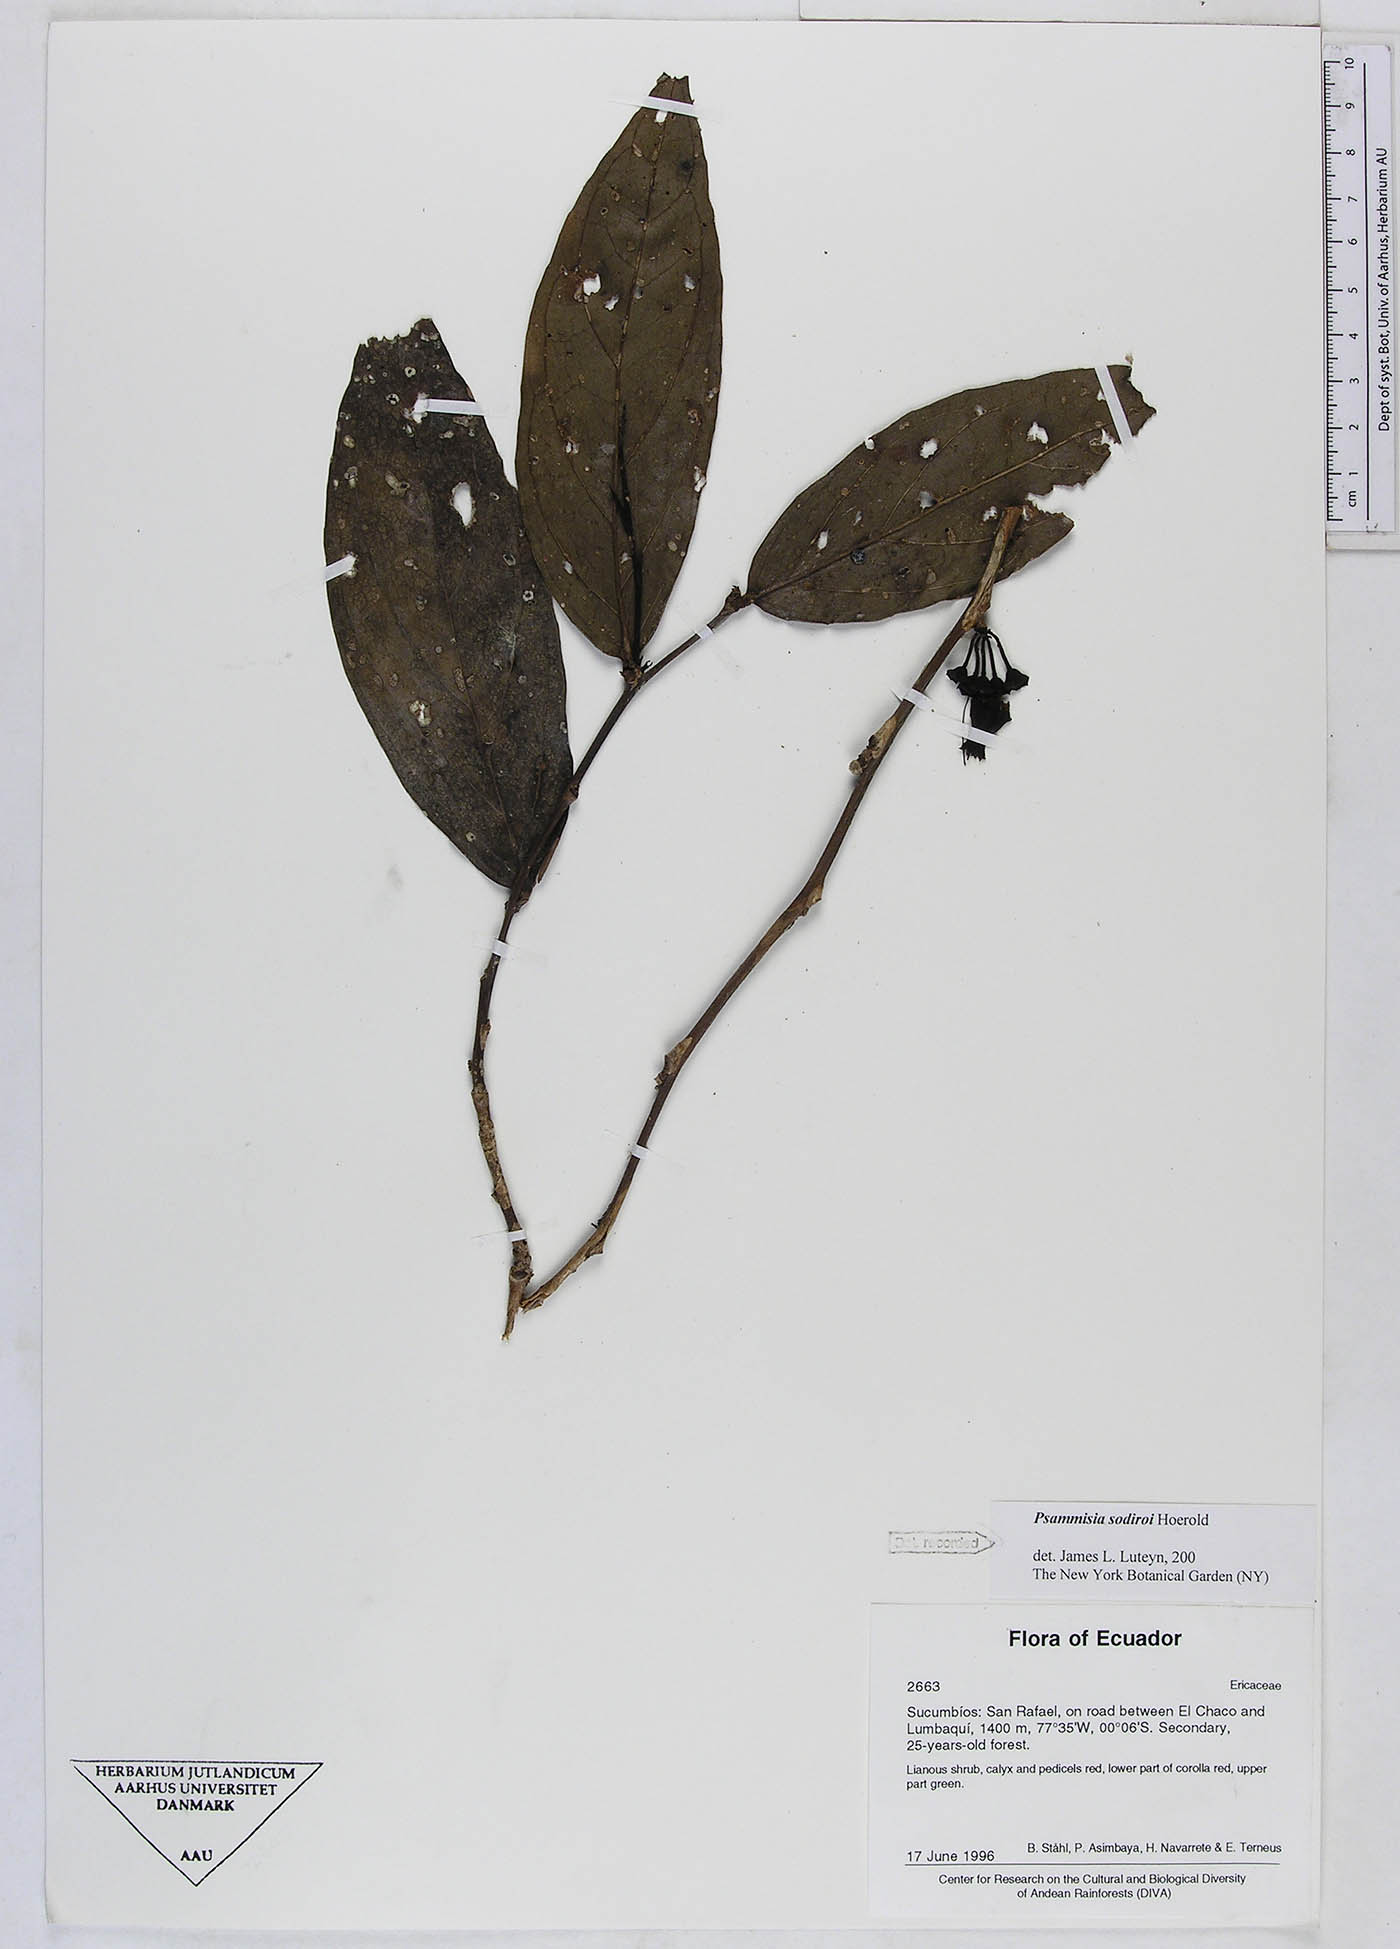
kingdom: Plantae
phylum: Tracheophyta
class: Magnoliopsida
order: Ericales
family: Ericaceae
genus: Psammisia
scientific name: Psammisia sodiroi
